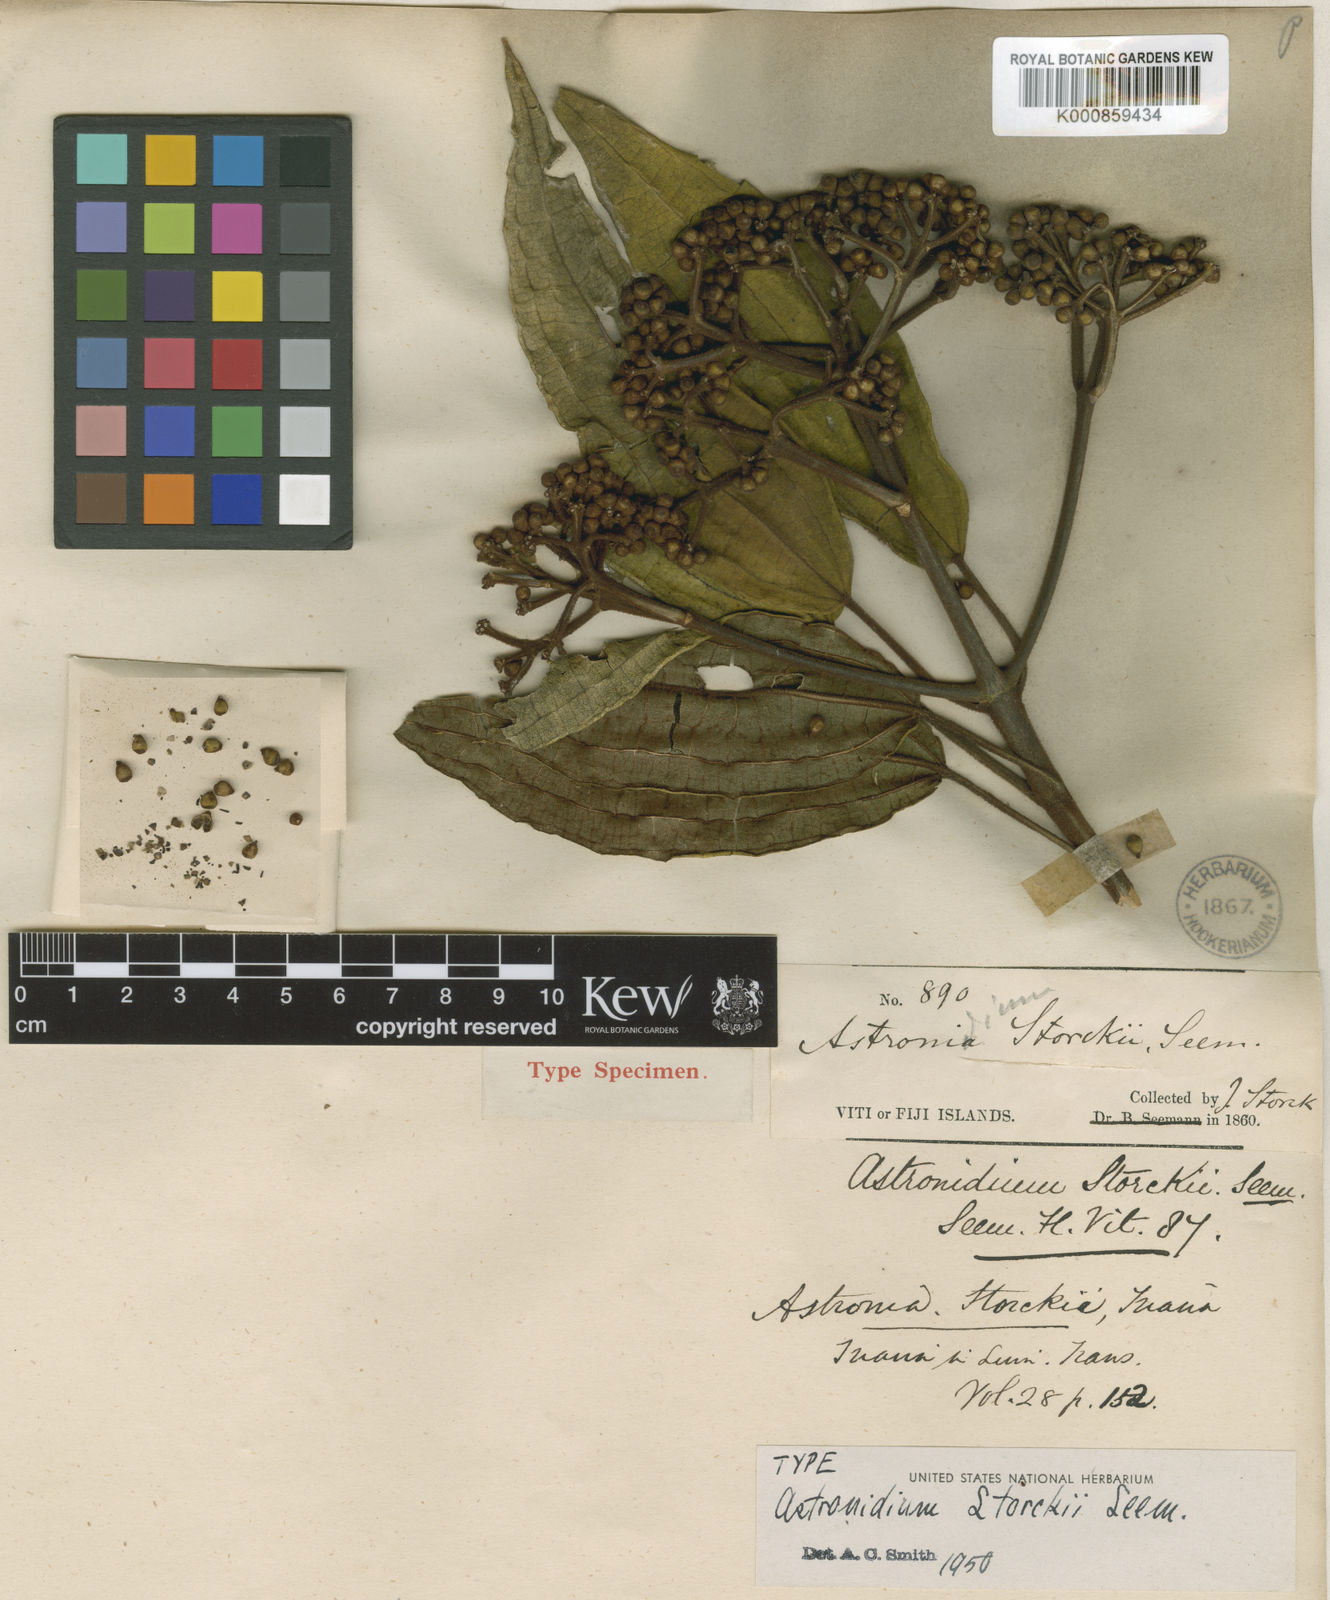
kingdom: Plantae
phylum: Tracheophyta
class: Magnoliopsida
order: Myrtales
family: Melastomataceae
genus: Astronidium
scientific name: Astronidium storckii
